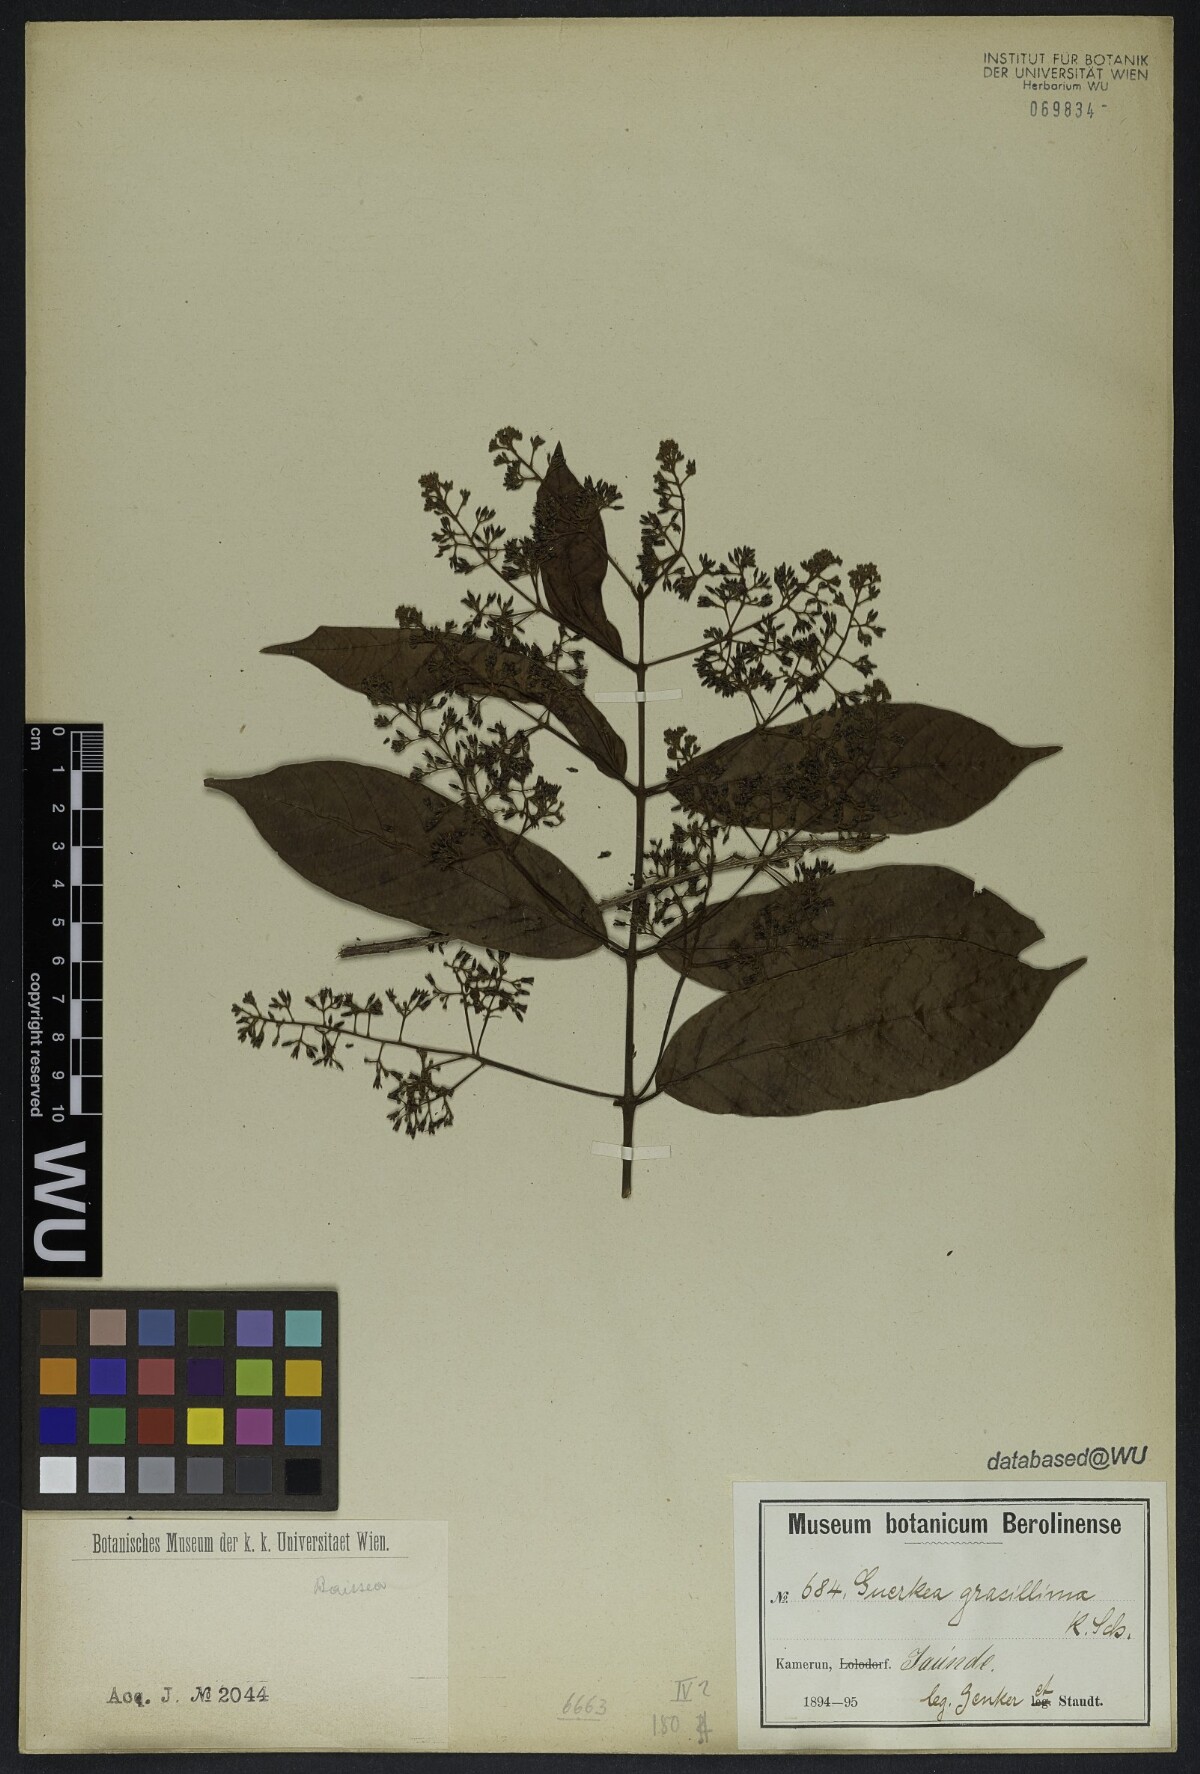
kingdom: Plantae
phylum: Tracheophyta
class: Magnoliopsida
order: Gentianales
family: Apocynaceae
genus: Baissea
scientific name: Baissea gracillima
